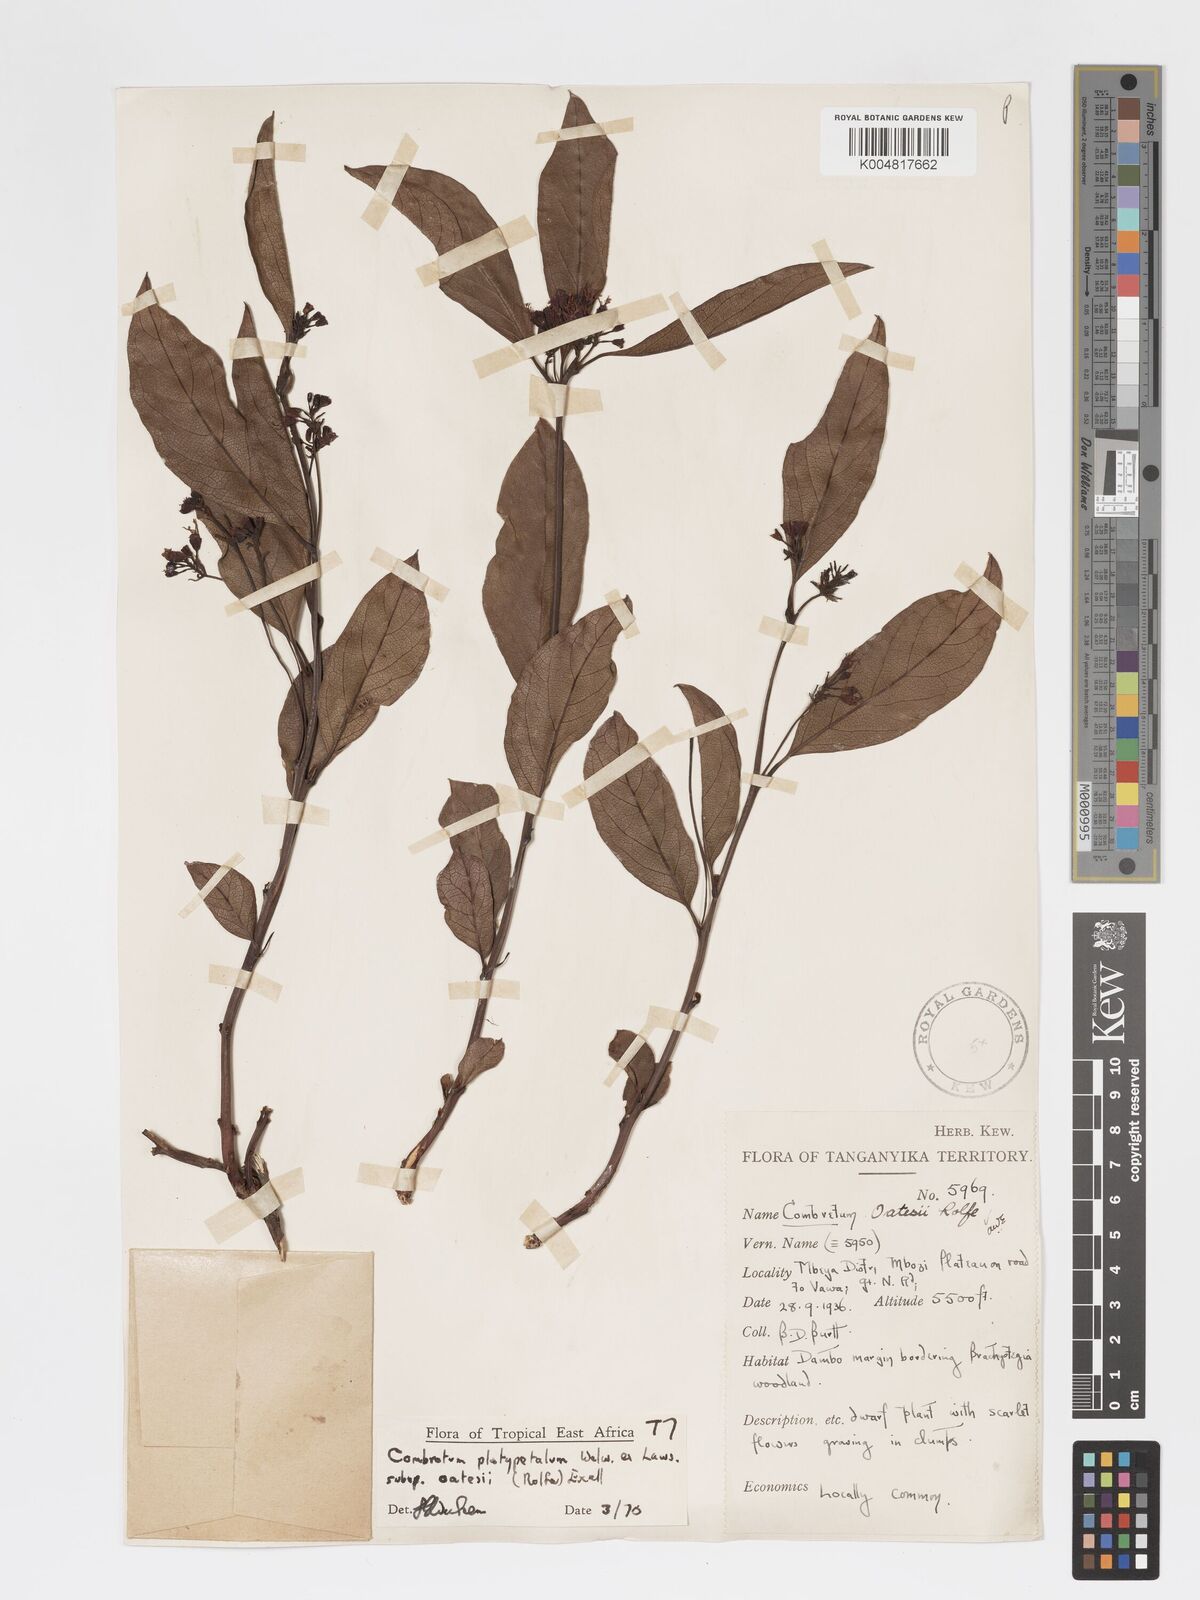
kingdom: Plantae
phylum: Tracheophyta
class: Magnoliopsida
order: Myrtales
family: Combretaceae
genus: Combretum
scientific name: Combretum platypetalum
